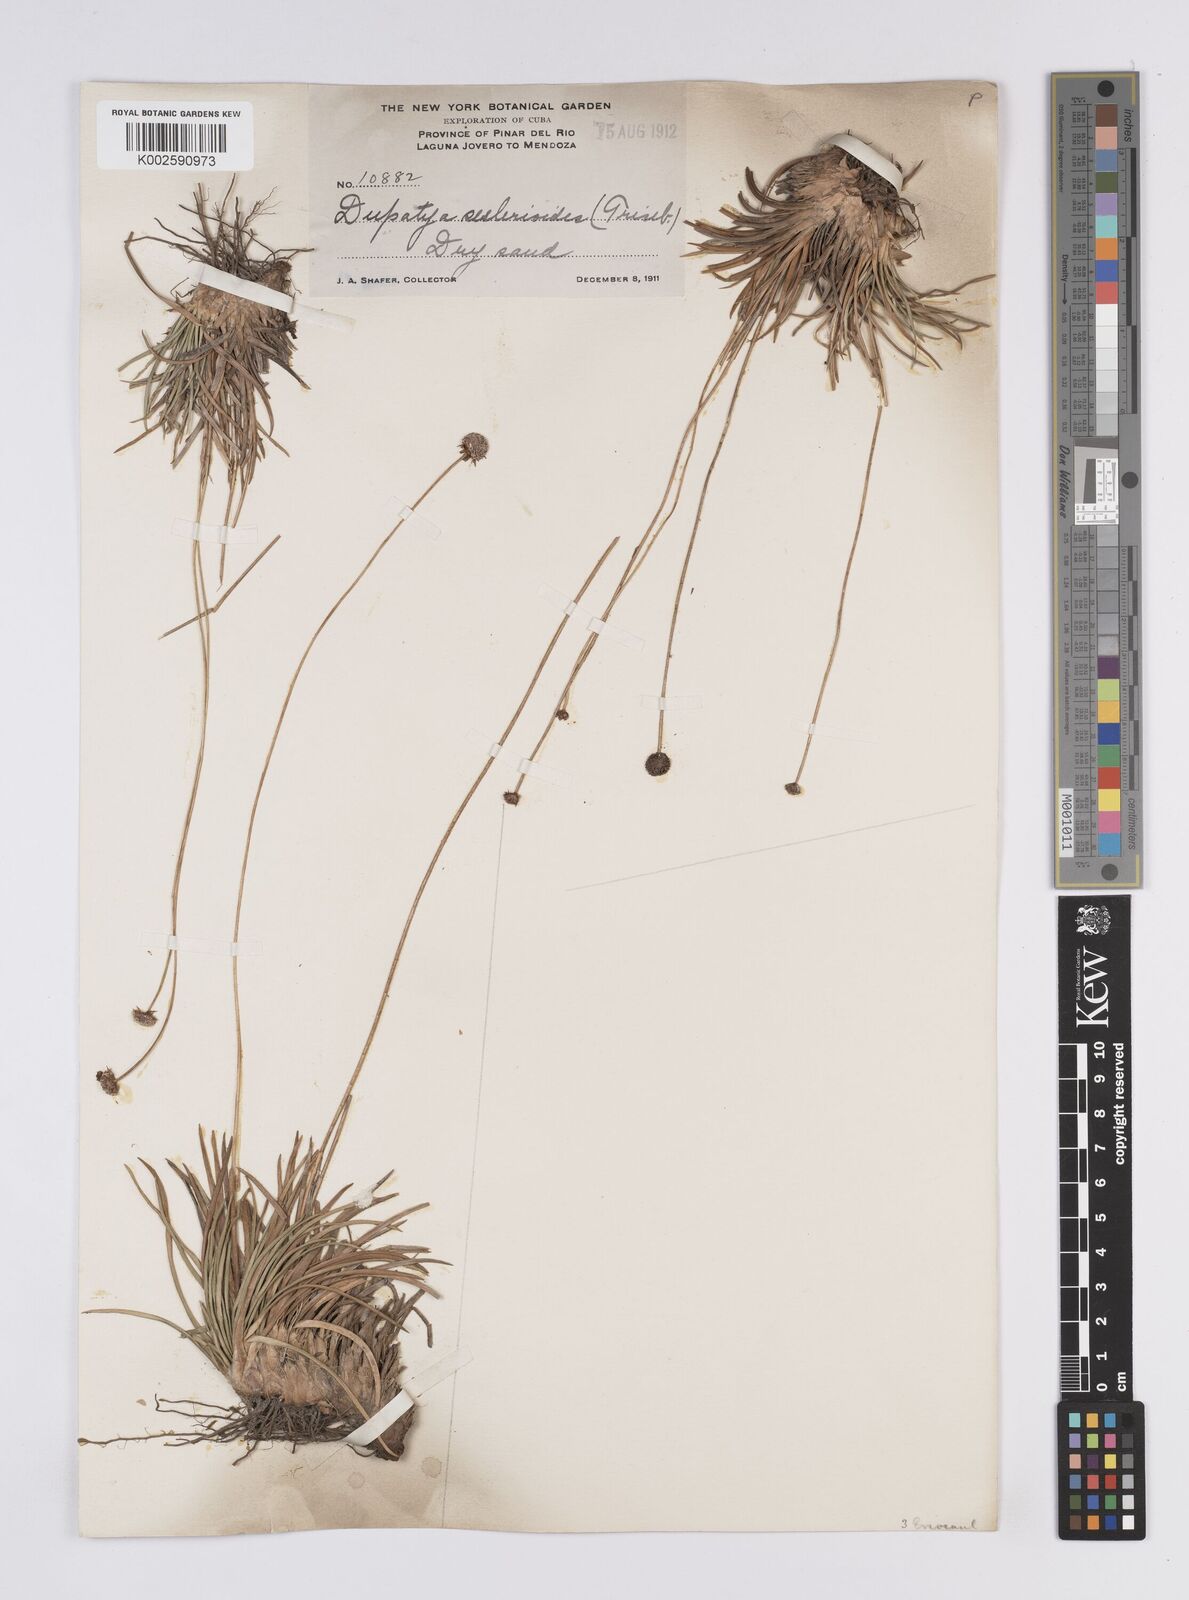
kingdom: Plantae
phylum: Tracheophyta
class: Liliopsida
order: Poales
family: Eriocaulaceae
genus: Paepalanthus
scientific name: Paepalanthus seslerioides
